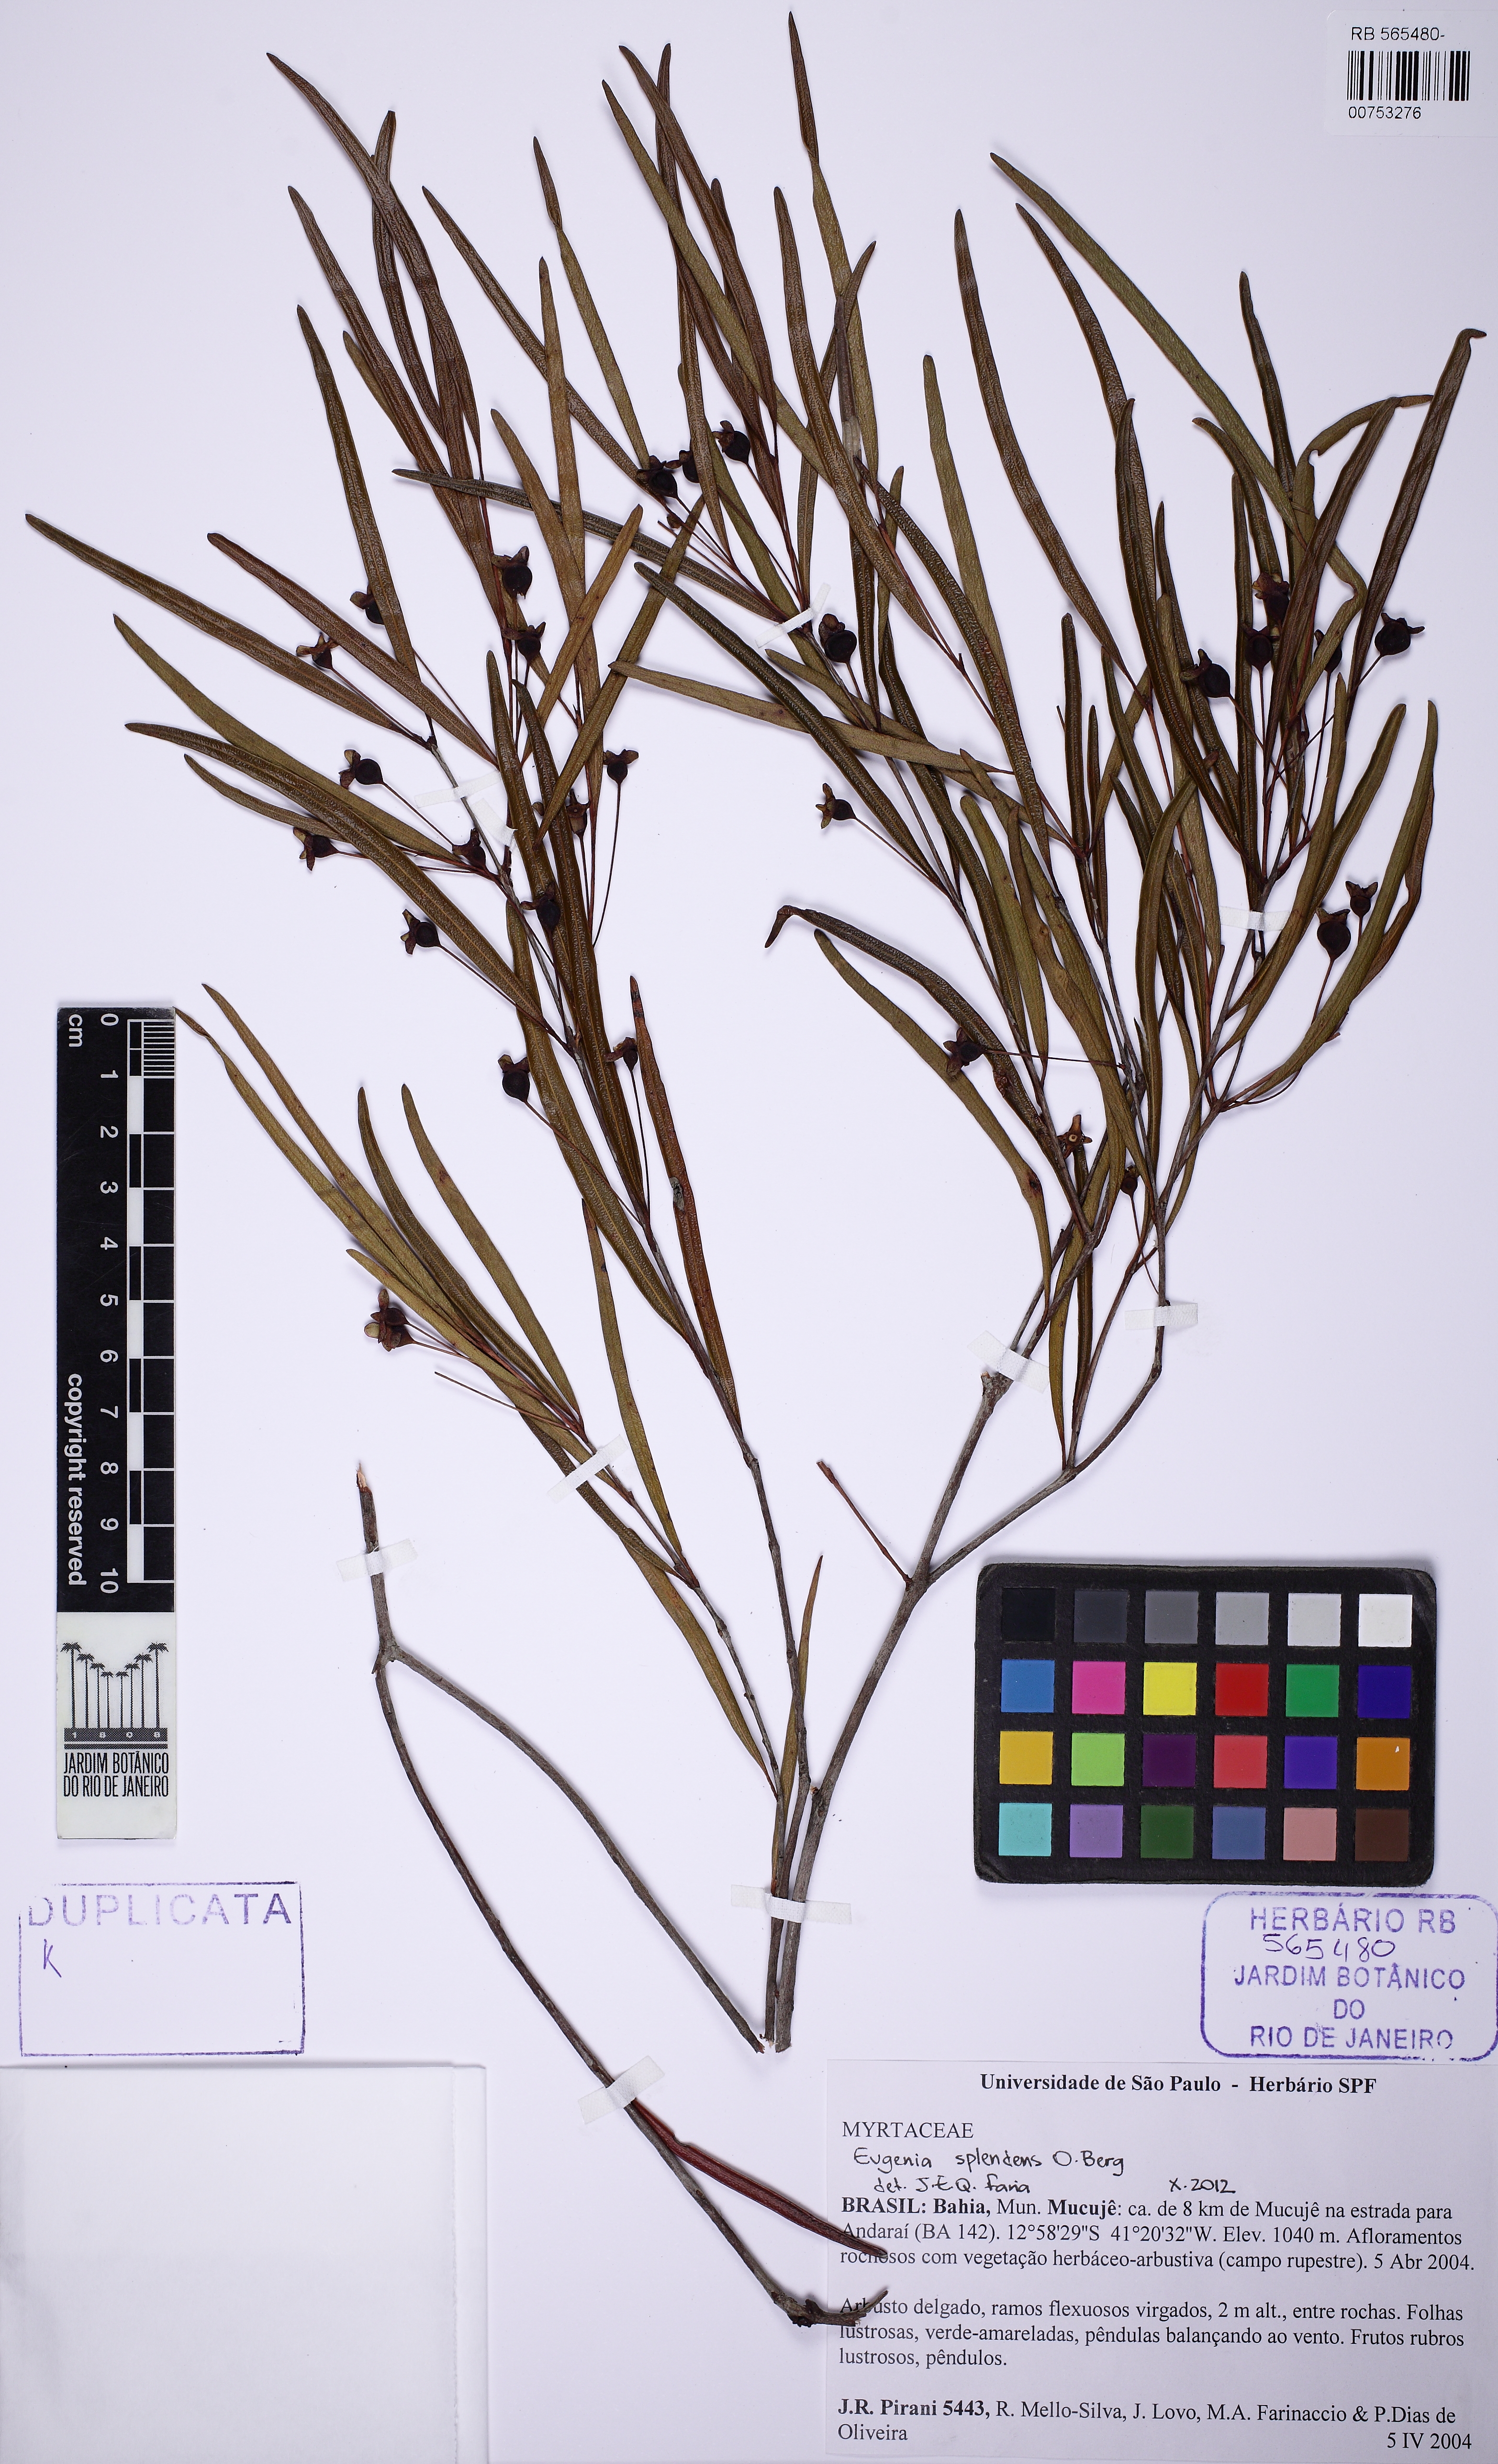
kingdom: Plantae
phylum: Tracheophyta
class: Magnoliopsida
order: Myrtales
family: Myrtaceae
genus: Eugenia
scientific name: Eugenia splendens
